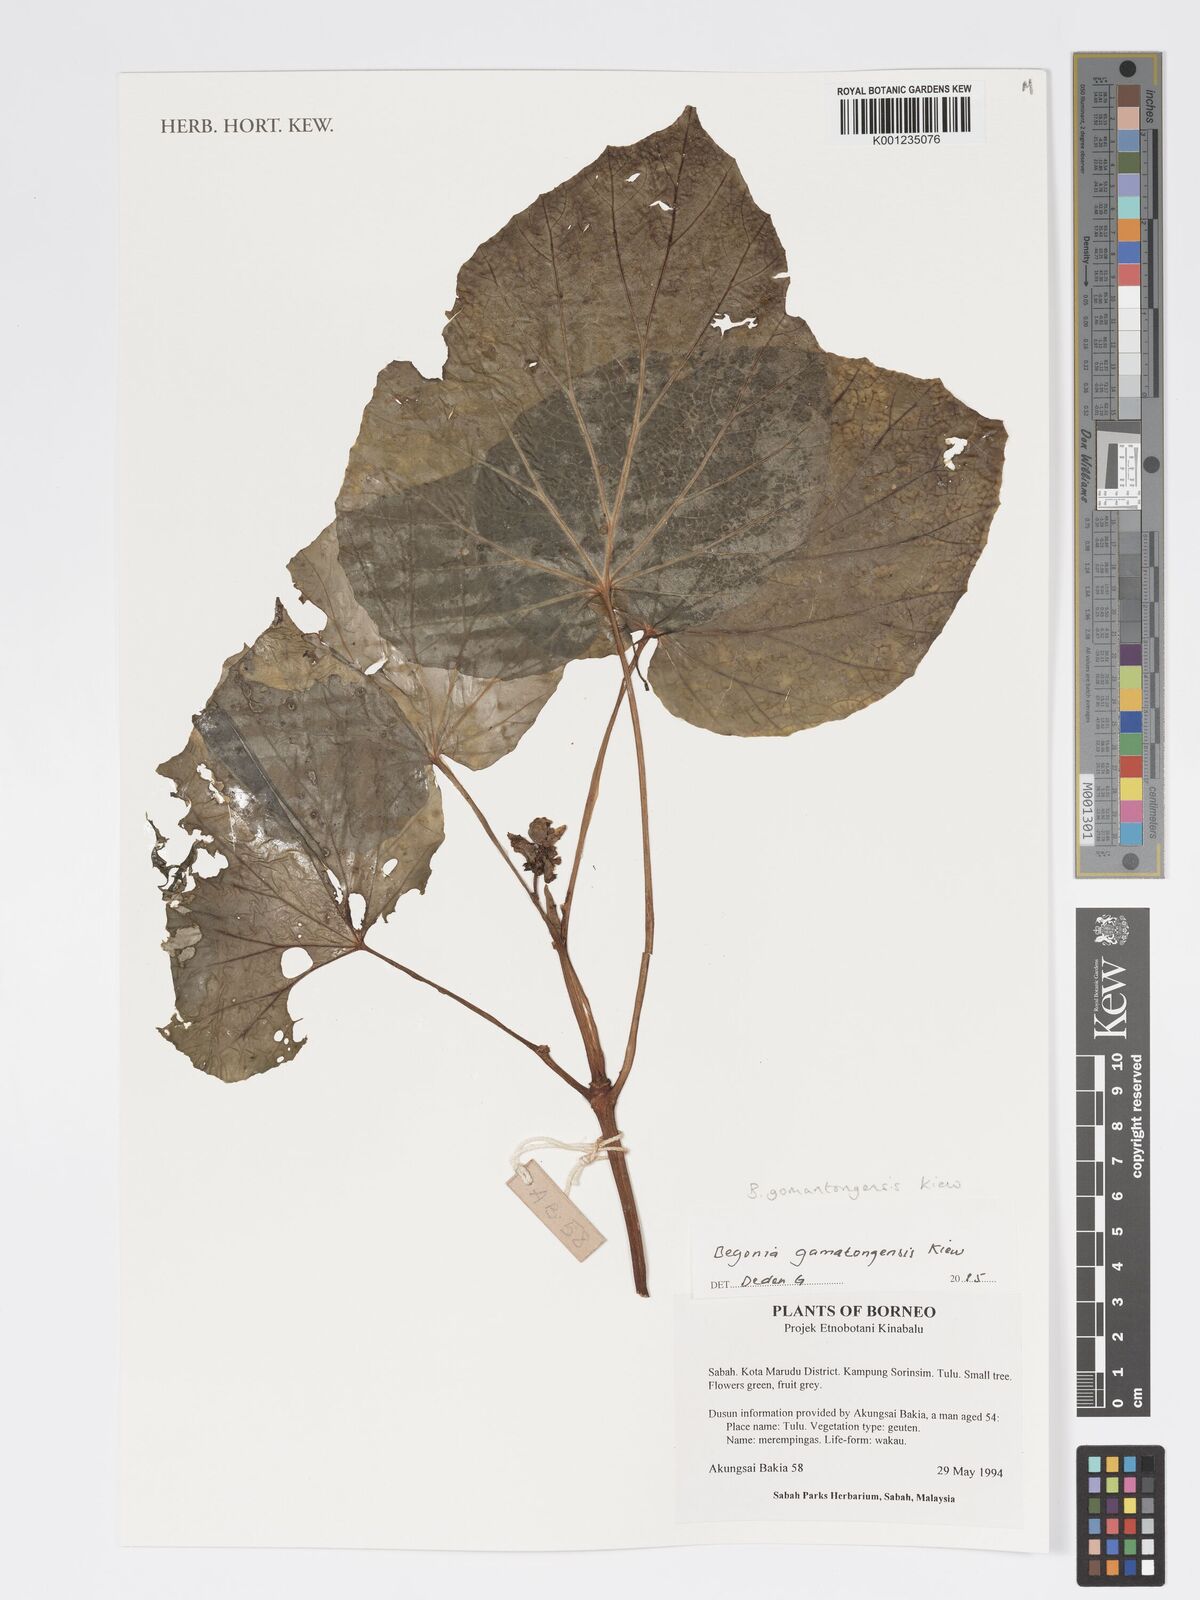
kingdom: Plantae
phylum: Tracheophyta
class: Magnoliopsida
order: Cucurbitales
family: Begoniaceae
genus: Begonia
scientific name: Begonia gomantongensis
